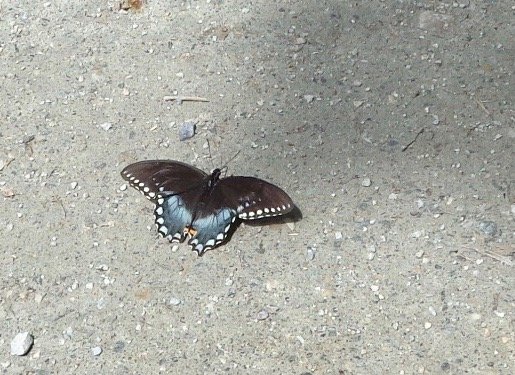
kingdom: Animalia
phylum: Arthropoda
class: Insecta
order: Lepidoptera
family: Papilionidae
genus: Pterourus
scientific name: Pterourus troilus
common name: Spicebush Swallowtail
